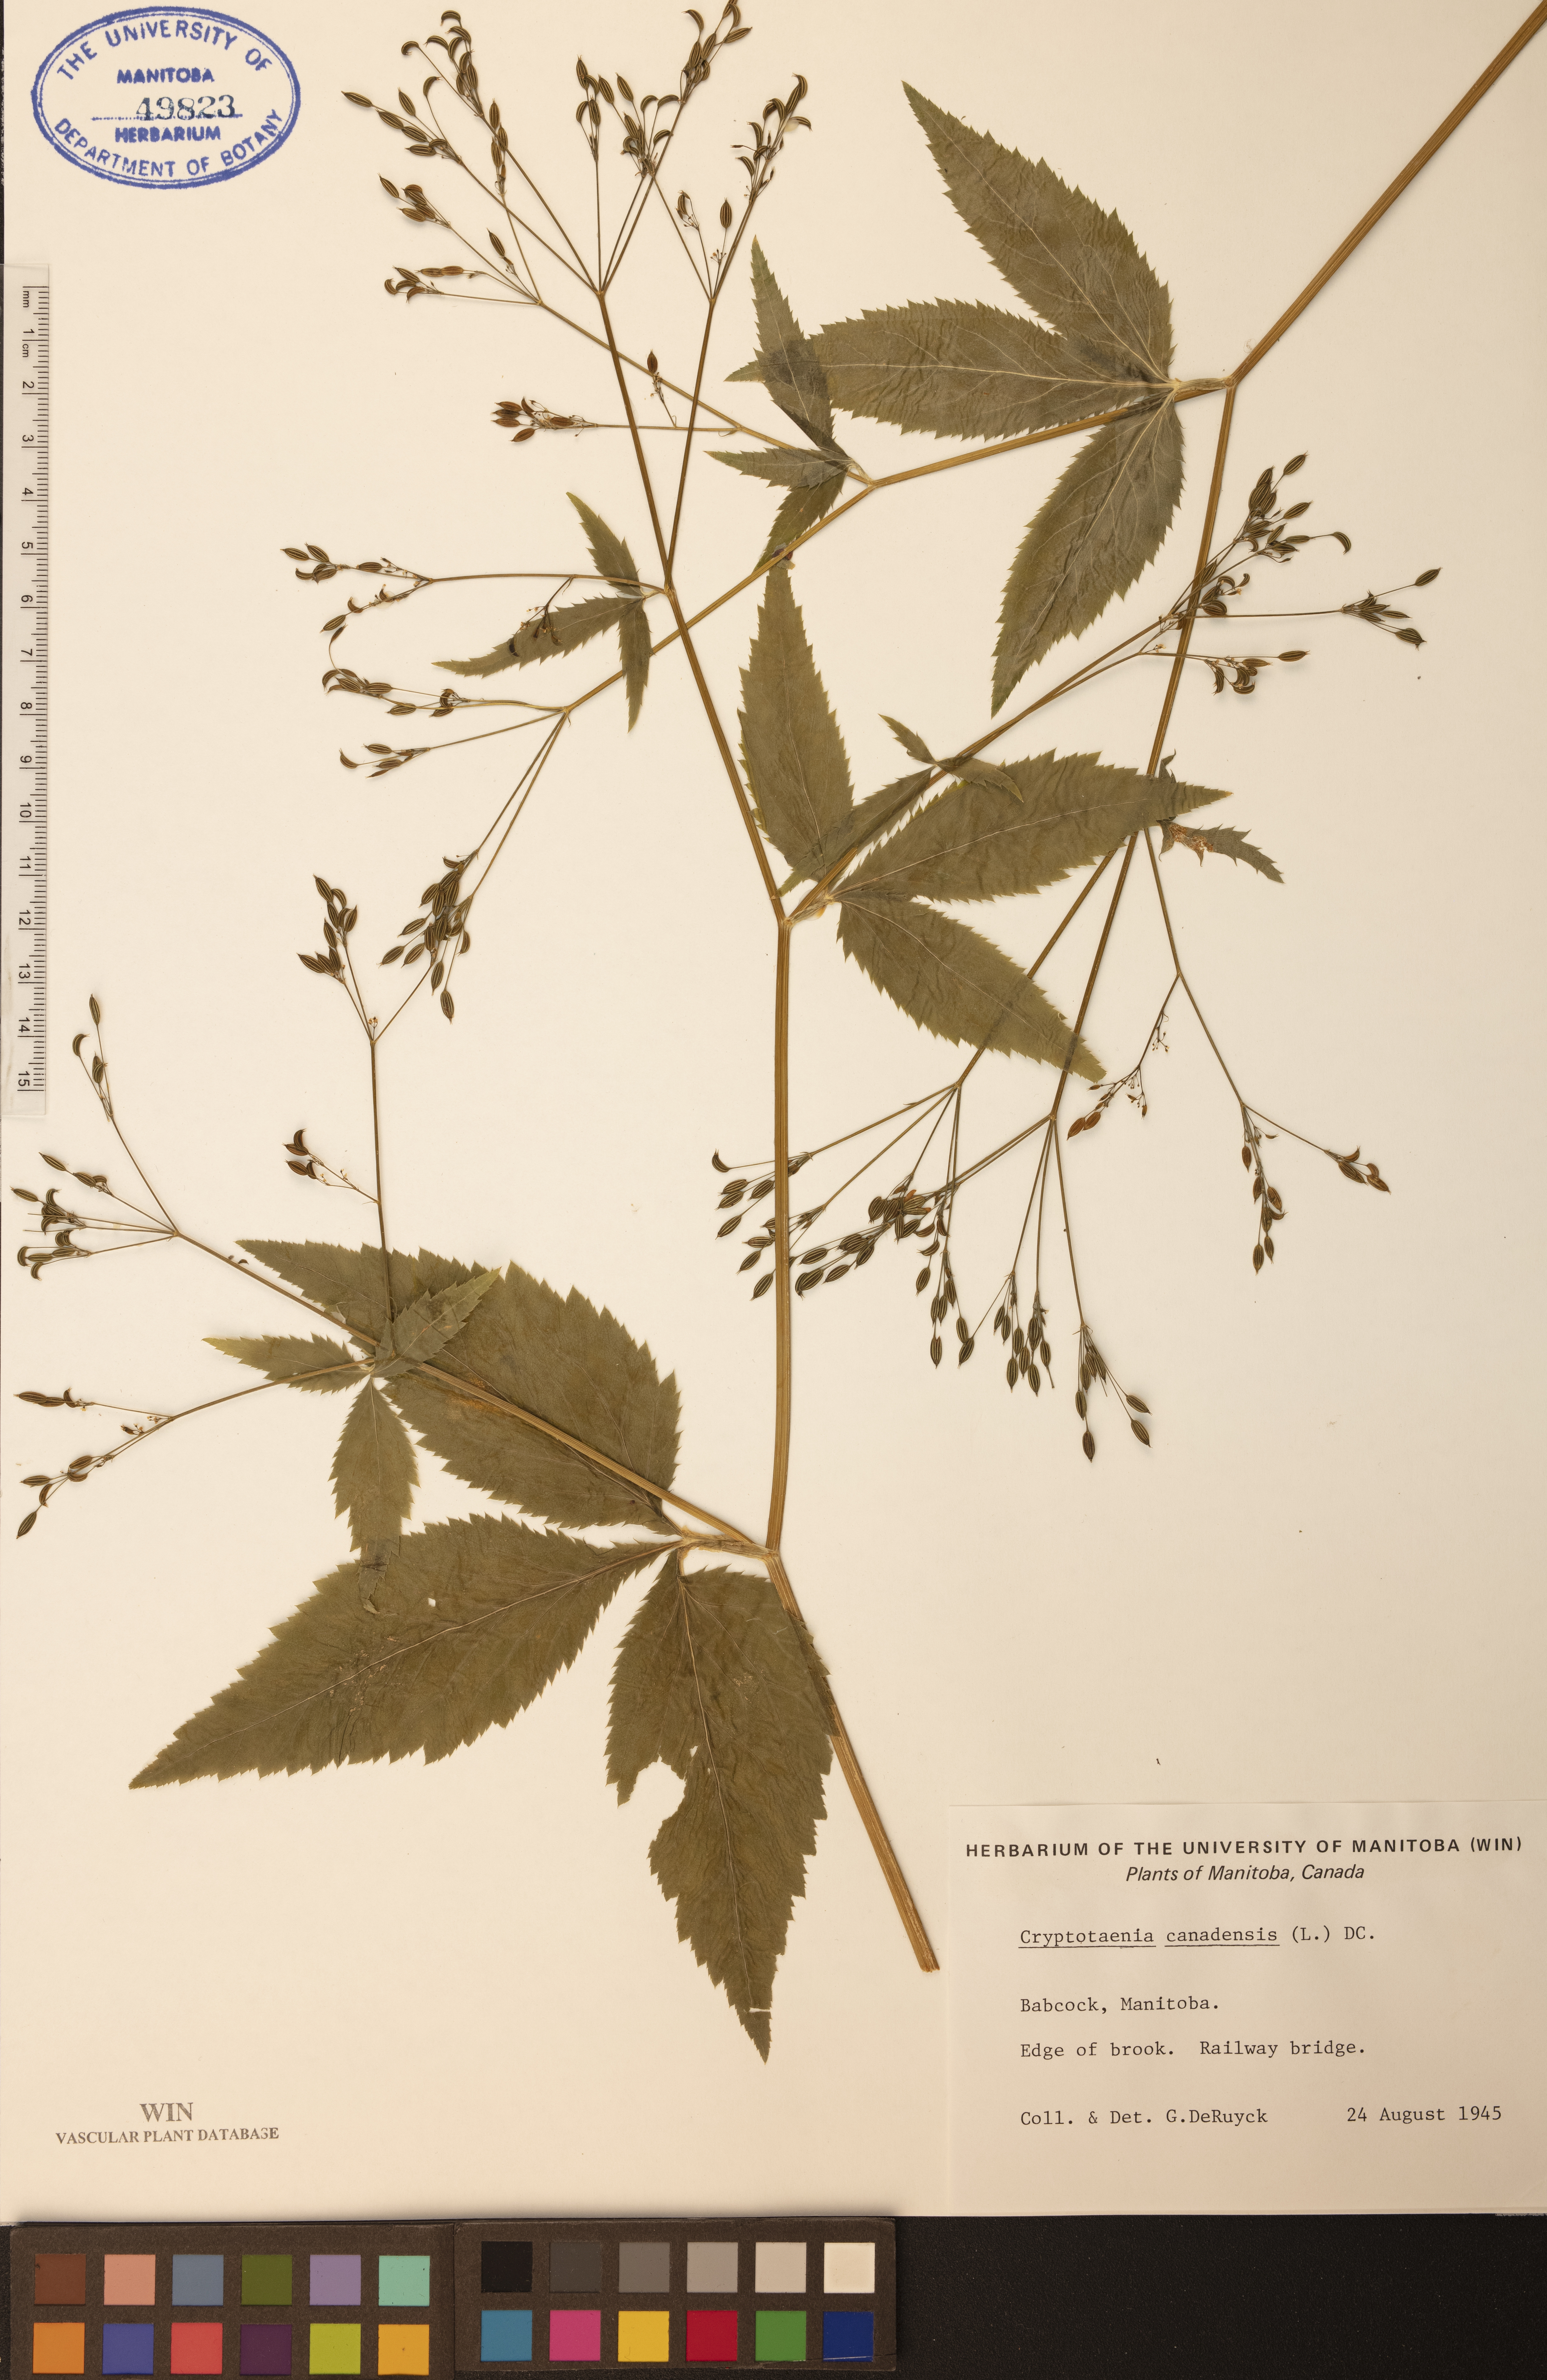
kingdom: Plantae
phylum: Tracheophyta
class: Magnoliopsida
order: Apiales
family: Apiaceae
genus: Cryptotaenia
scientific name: Cryptotaenia canadensis
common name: Honewort
